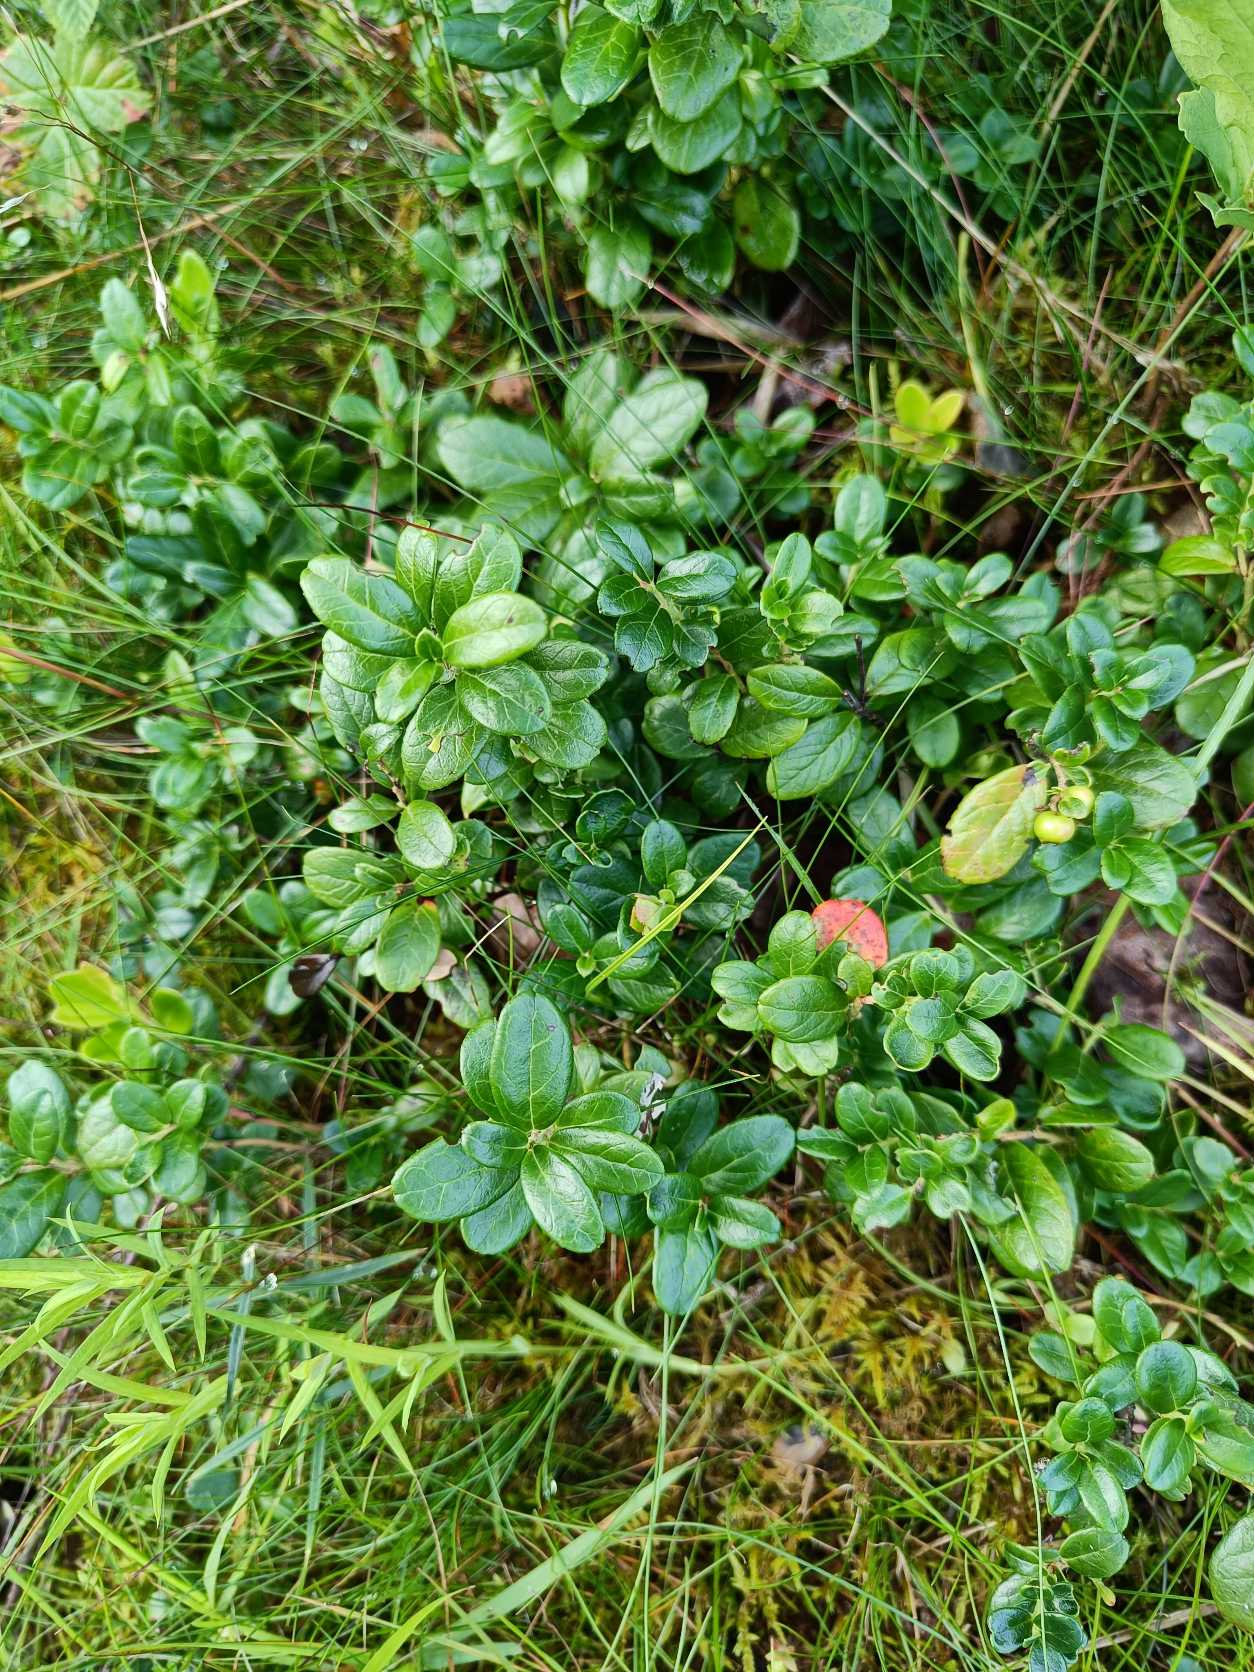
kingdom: Plantae
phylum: Tracheophyta
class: Magnoliopsida
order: Ericales
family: Ericaceae
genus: Vaccinium
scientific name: Vaccinium vitis-idaea
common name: Tyttebær
